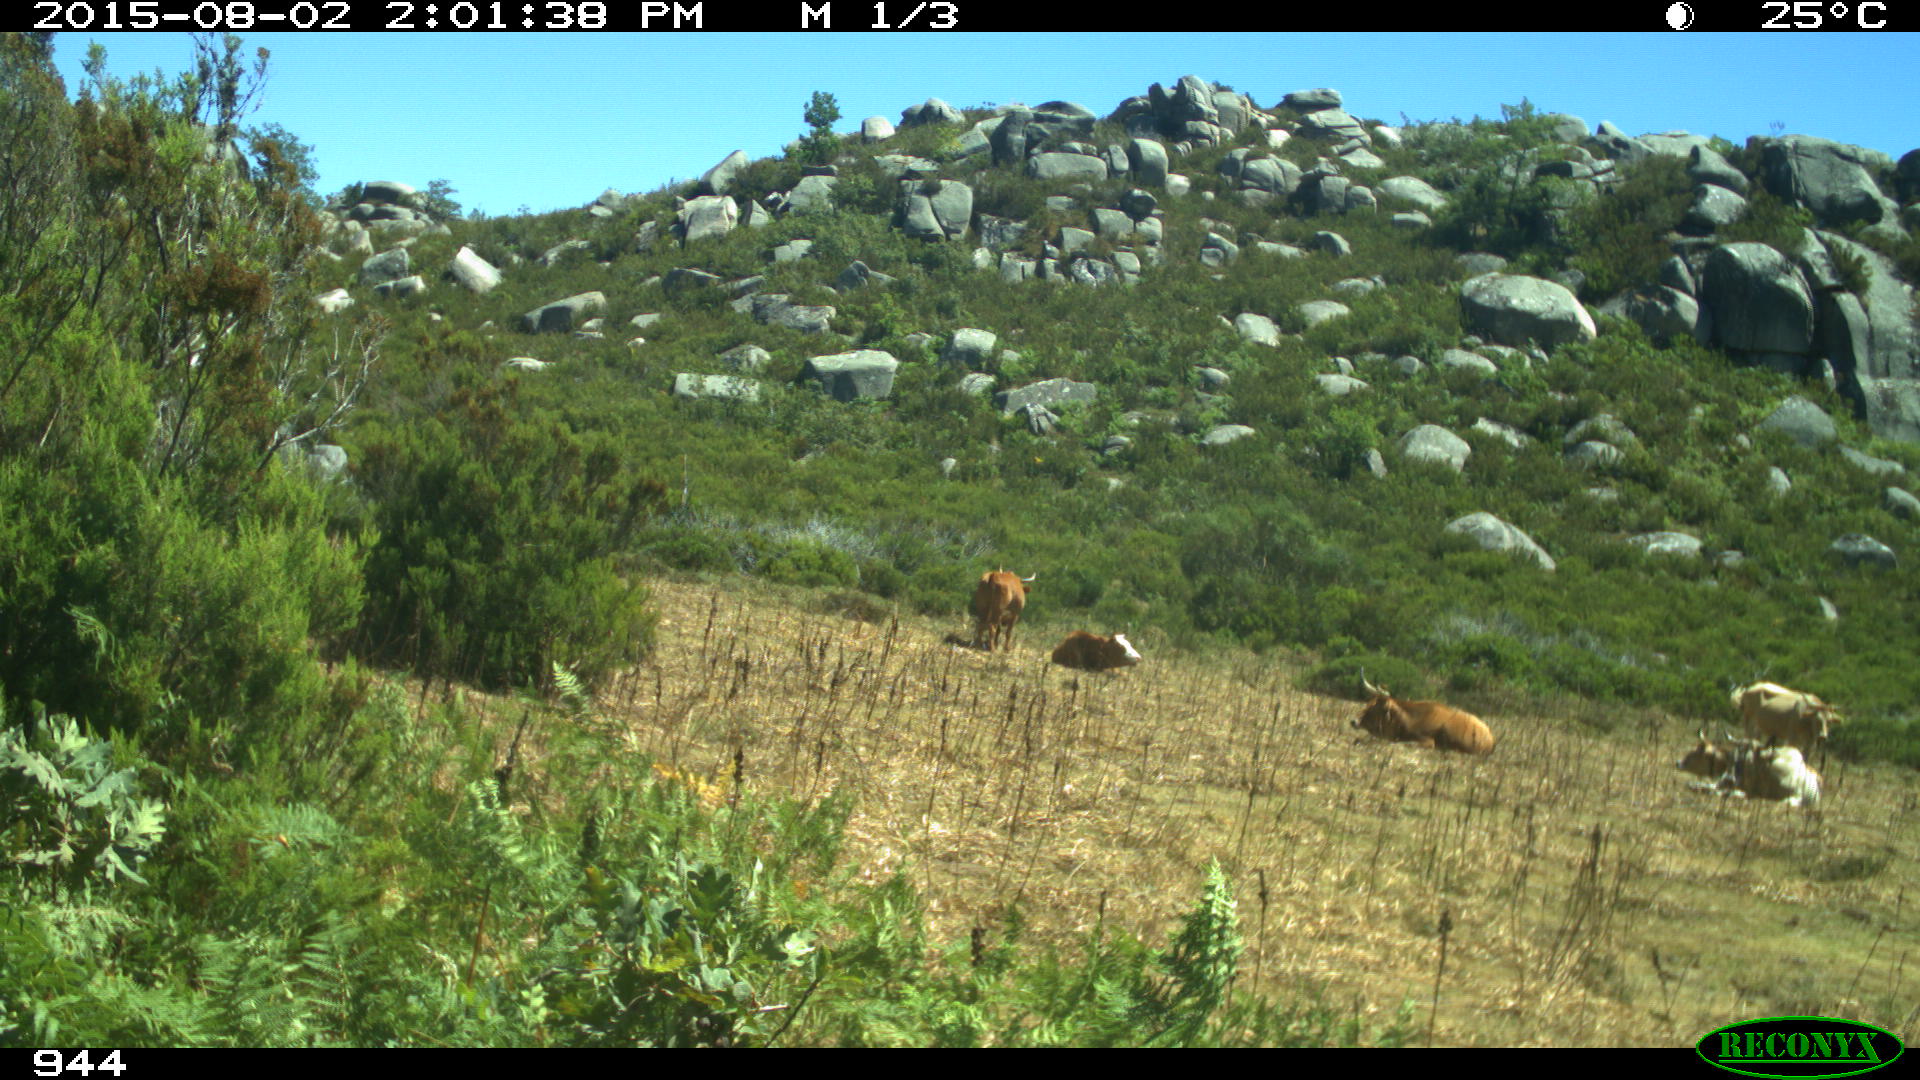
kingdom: Animalia
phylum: Chordata
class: Mammalia
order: Artiodactyla
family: Bovidae
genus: Bos
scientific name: Bos taurus
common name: Domesticated cattle
